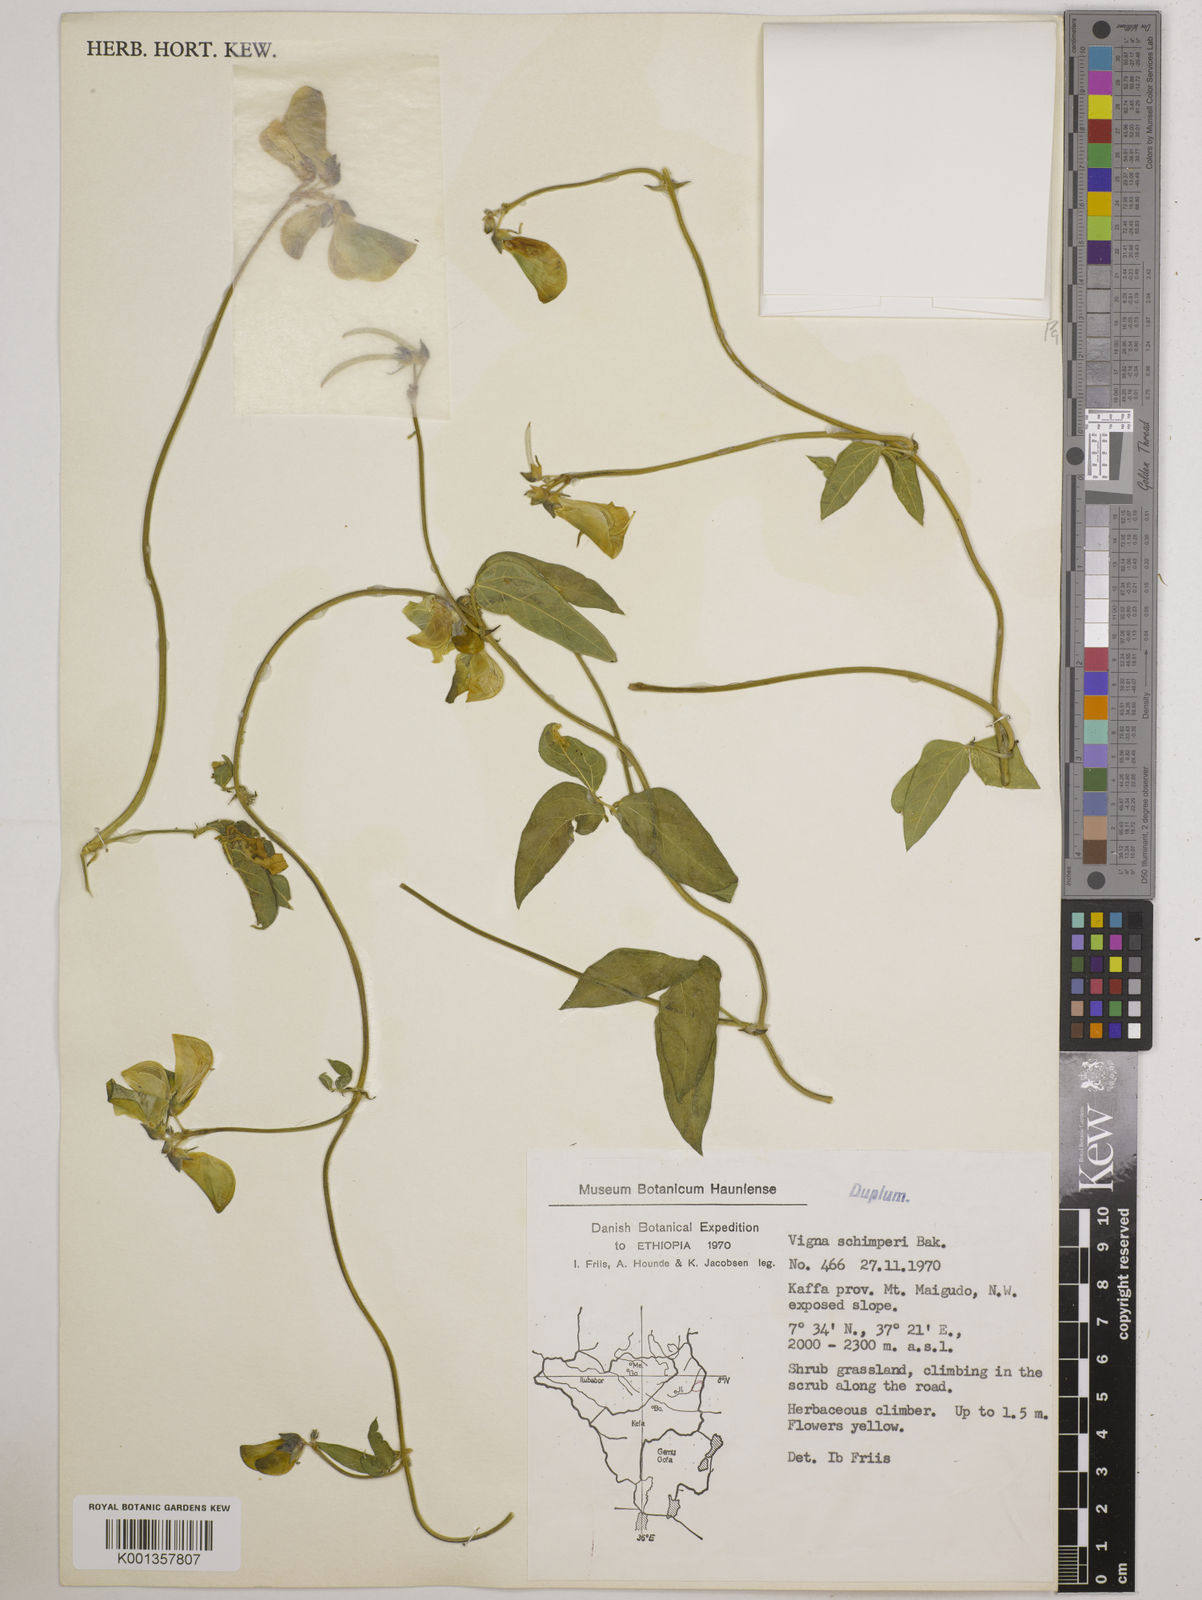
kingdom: Plantae
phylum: Tracheophyta
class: Magnoliopsida
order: Fabales
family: Fabaceae
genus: Vigna
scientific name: Vigna schimperi
